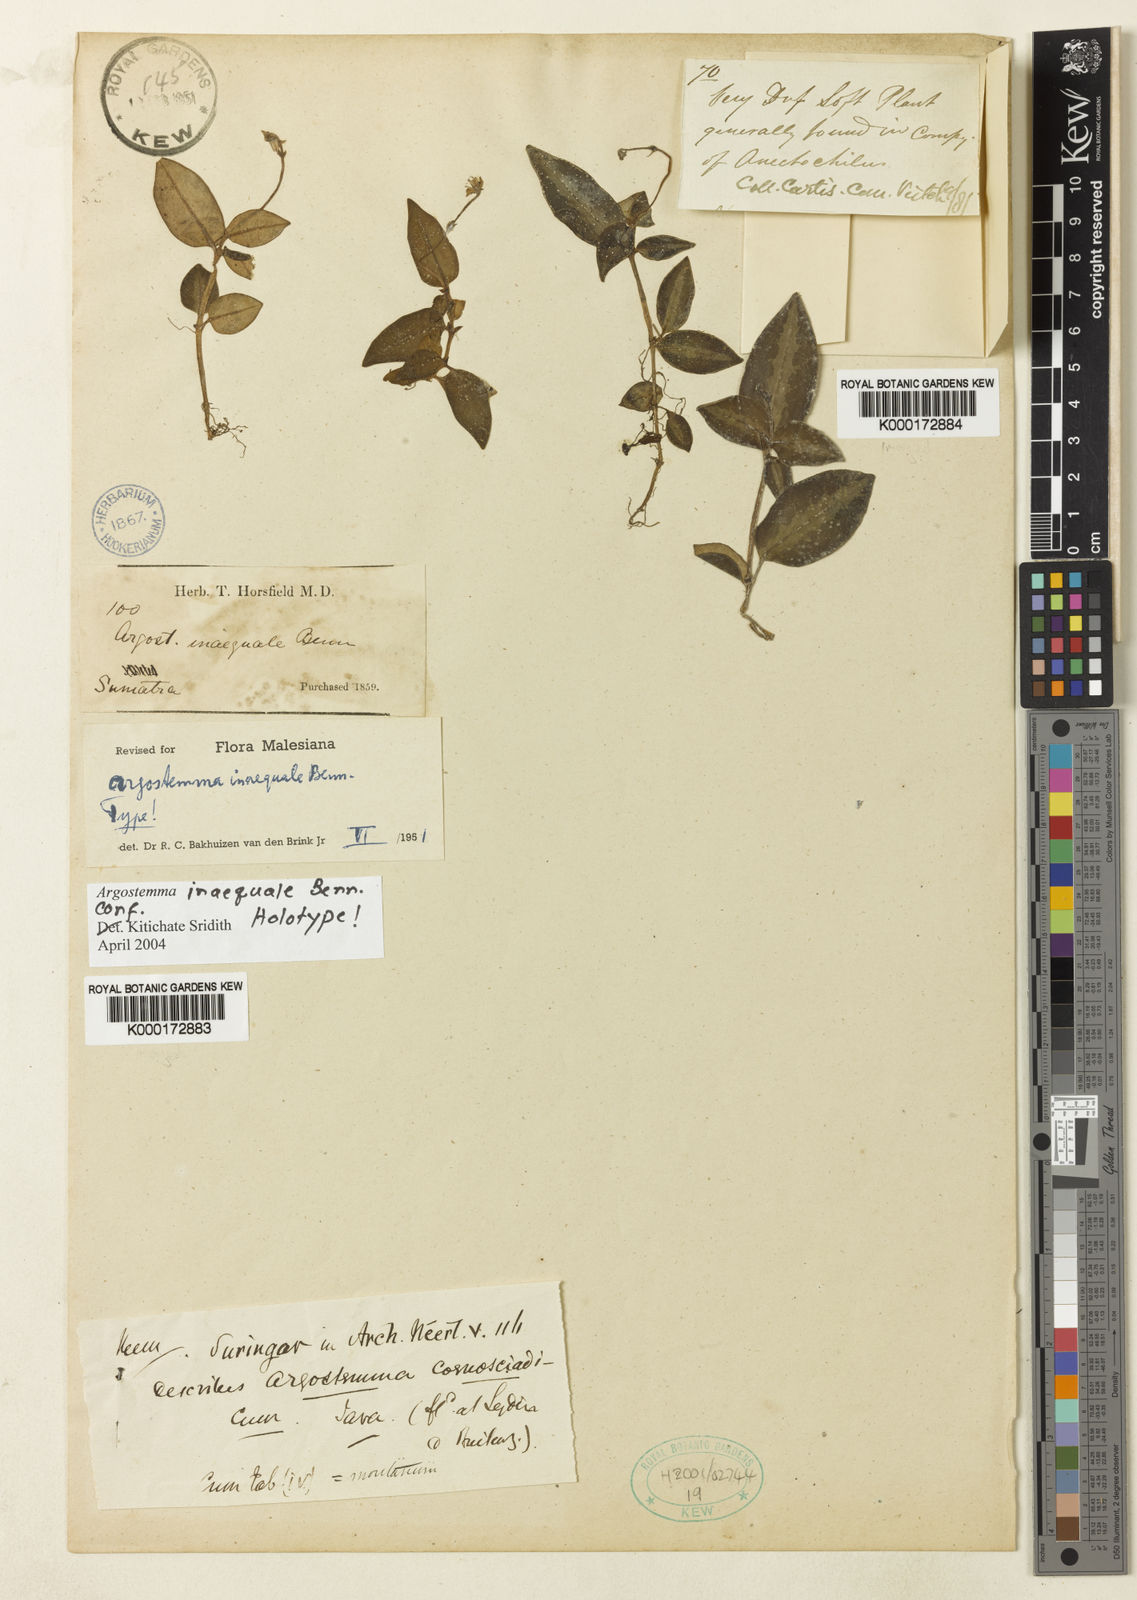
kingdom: Plantae
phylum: Tracheophyta
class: Magnoliopsida
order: Gentianales
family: Rubiaceae
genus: Argostemma
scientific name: Argostemma inaequale
